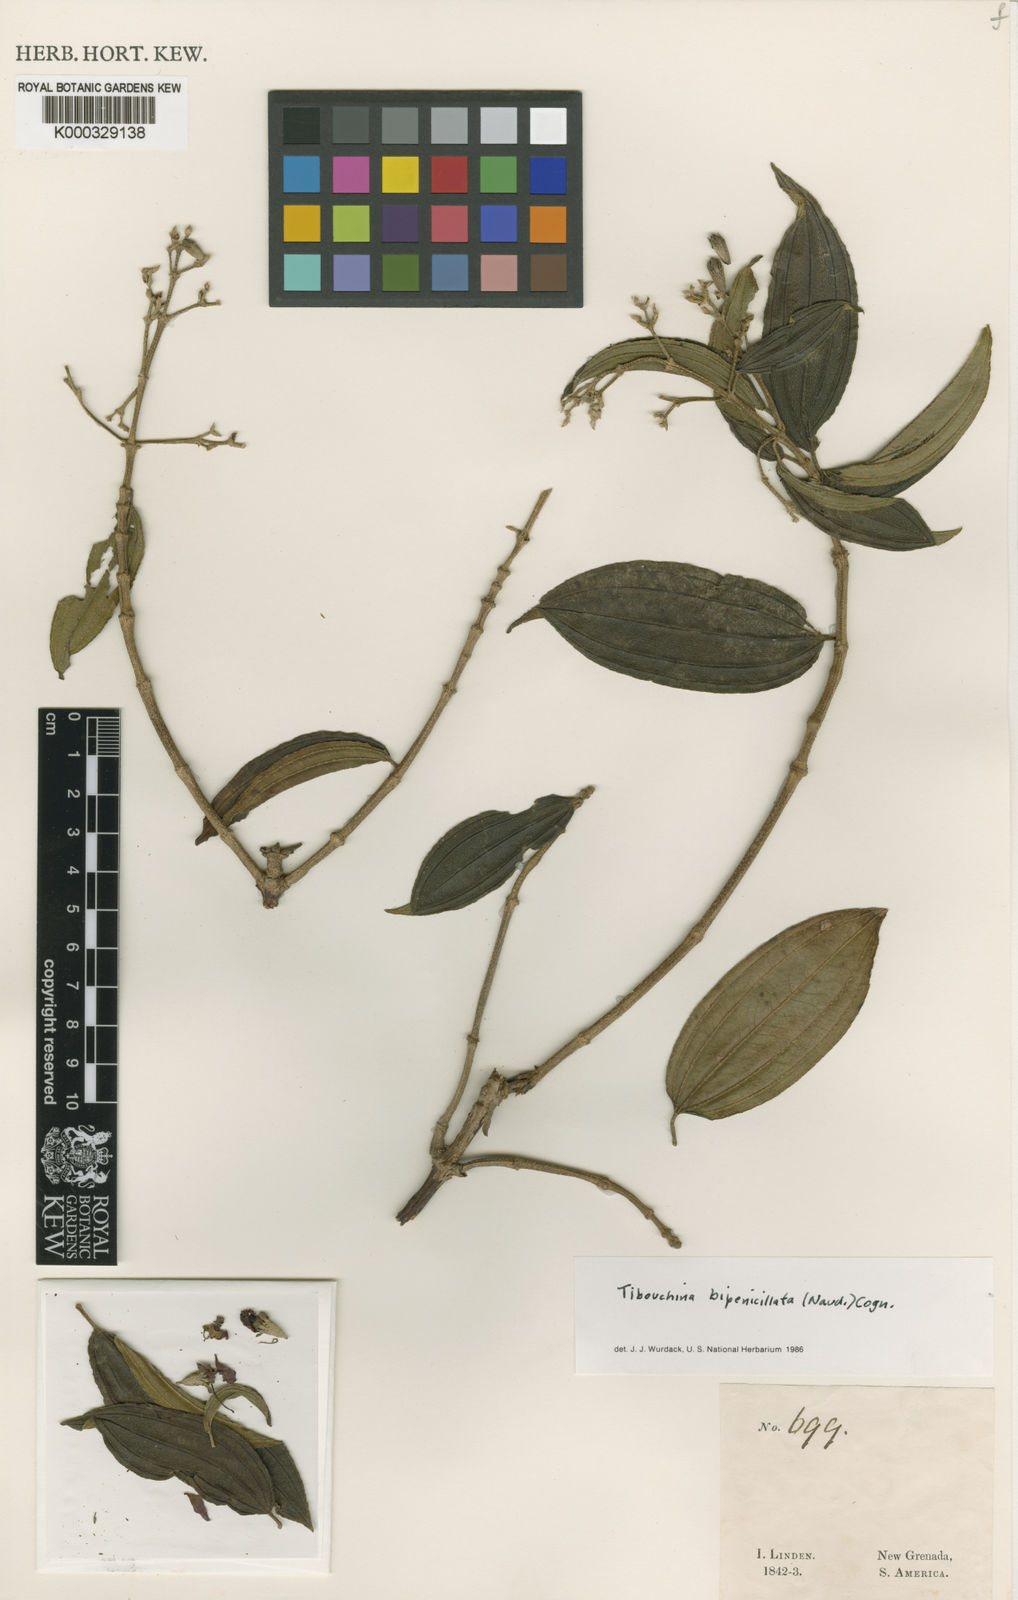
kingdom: Plantae
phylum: Tracheophyta
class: Magnoliopsida
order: Myrtales
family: Melastomataceae
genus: Pleroma
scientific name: Pleroma bipenicillatum
